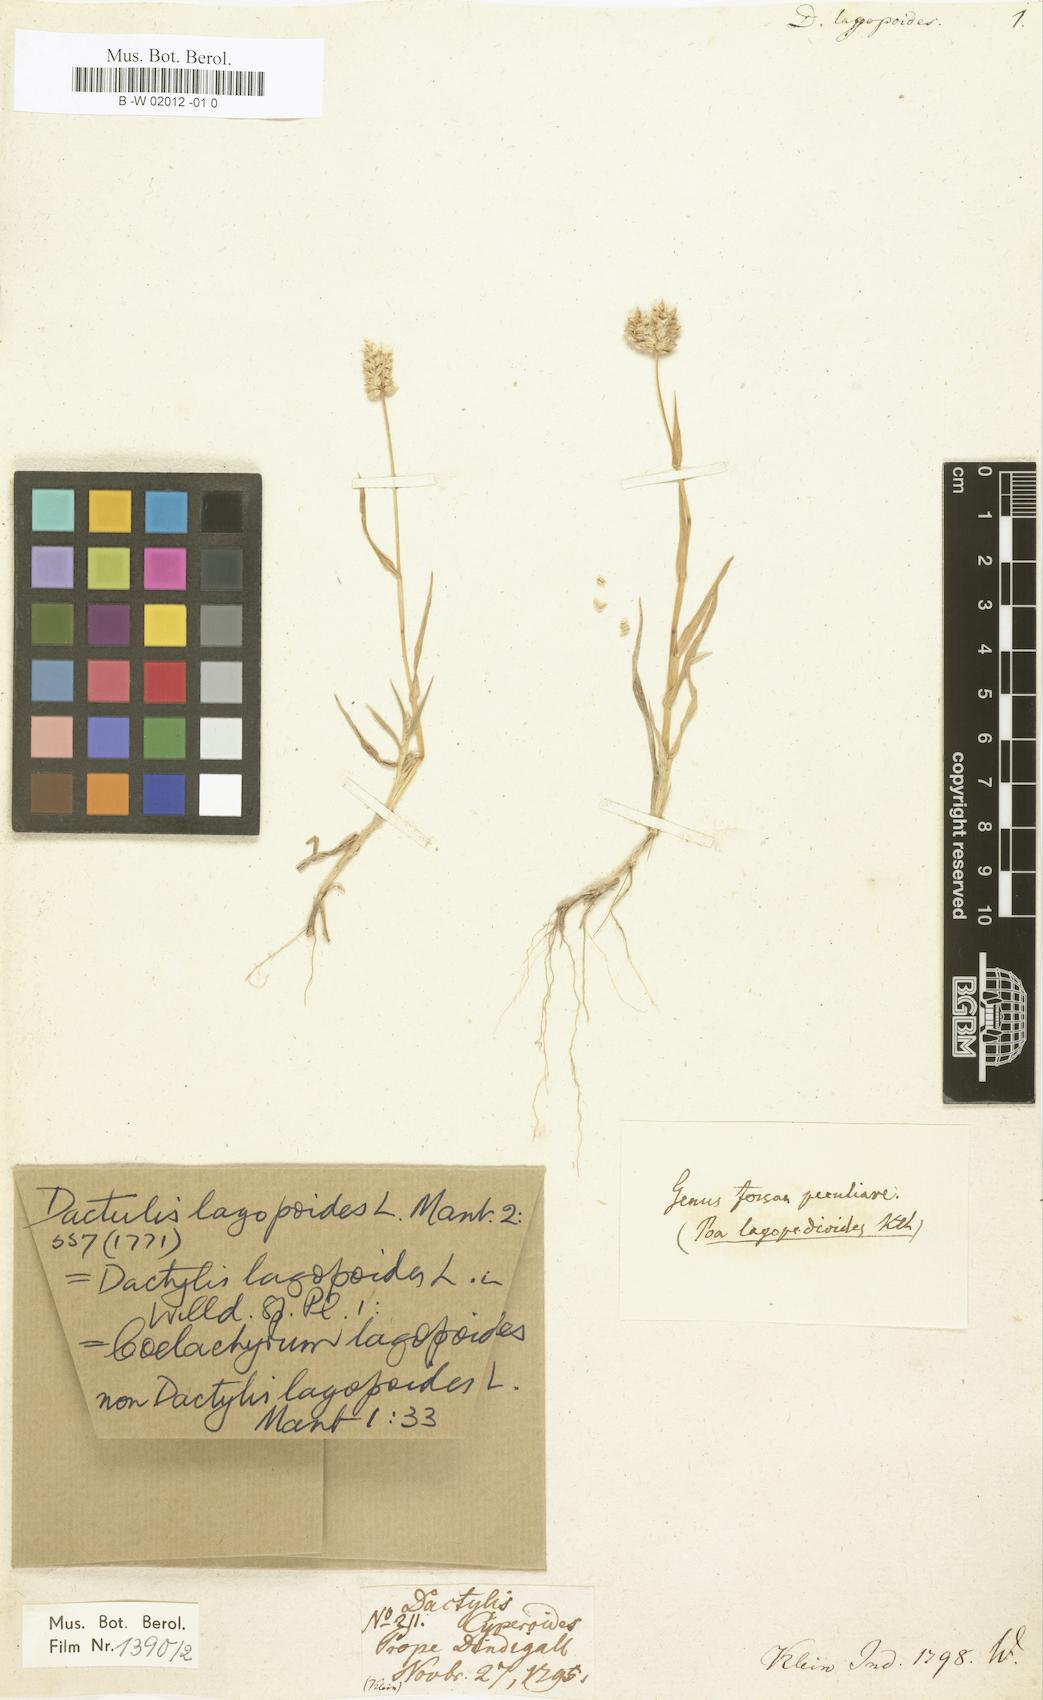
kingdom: Plantae
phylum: Tracheophyta
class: Liliopsida
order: Poales
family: Poaceae
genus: Aeluropus
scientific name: Aeluropus lagopoides
